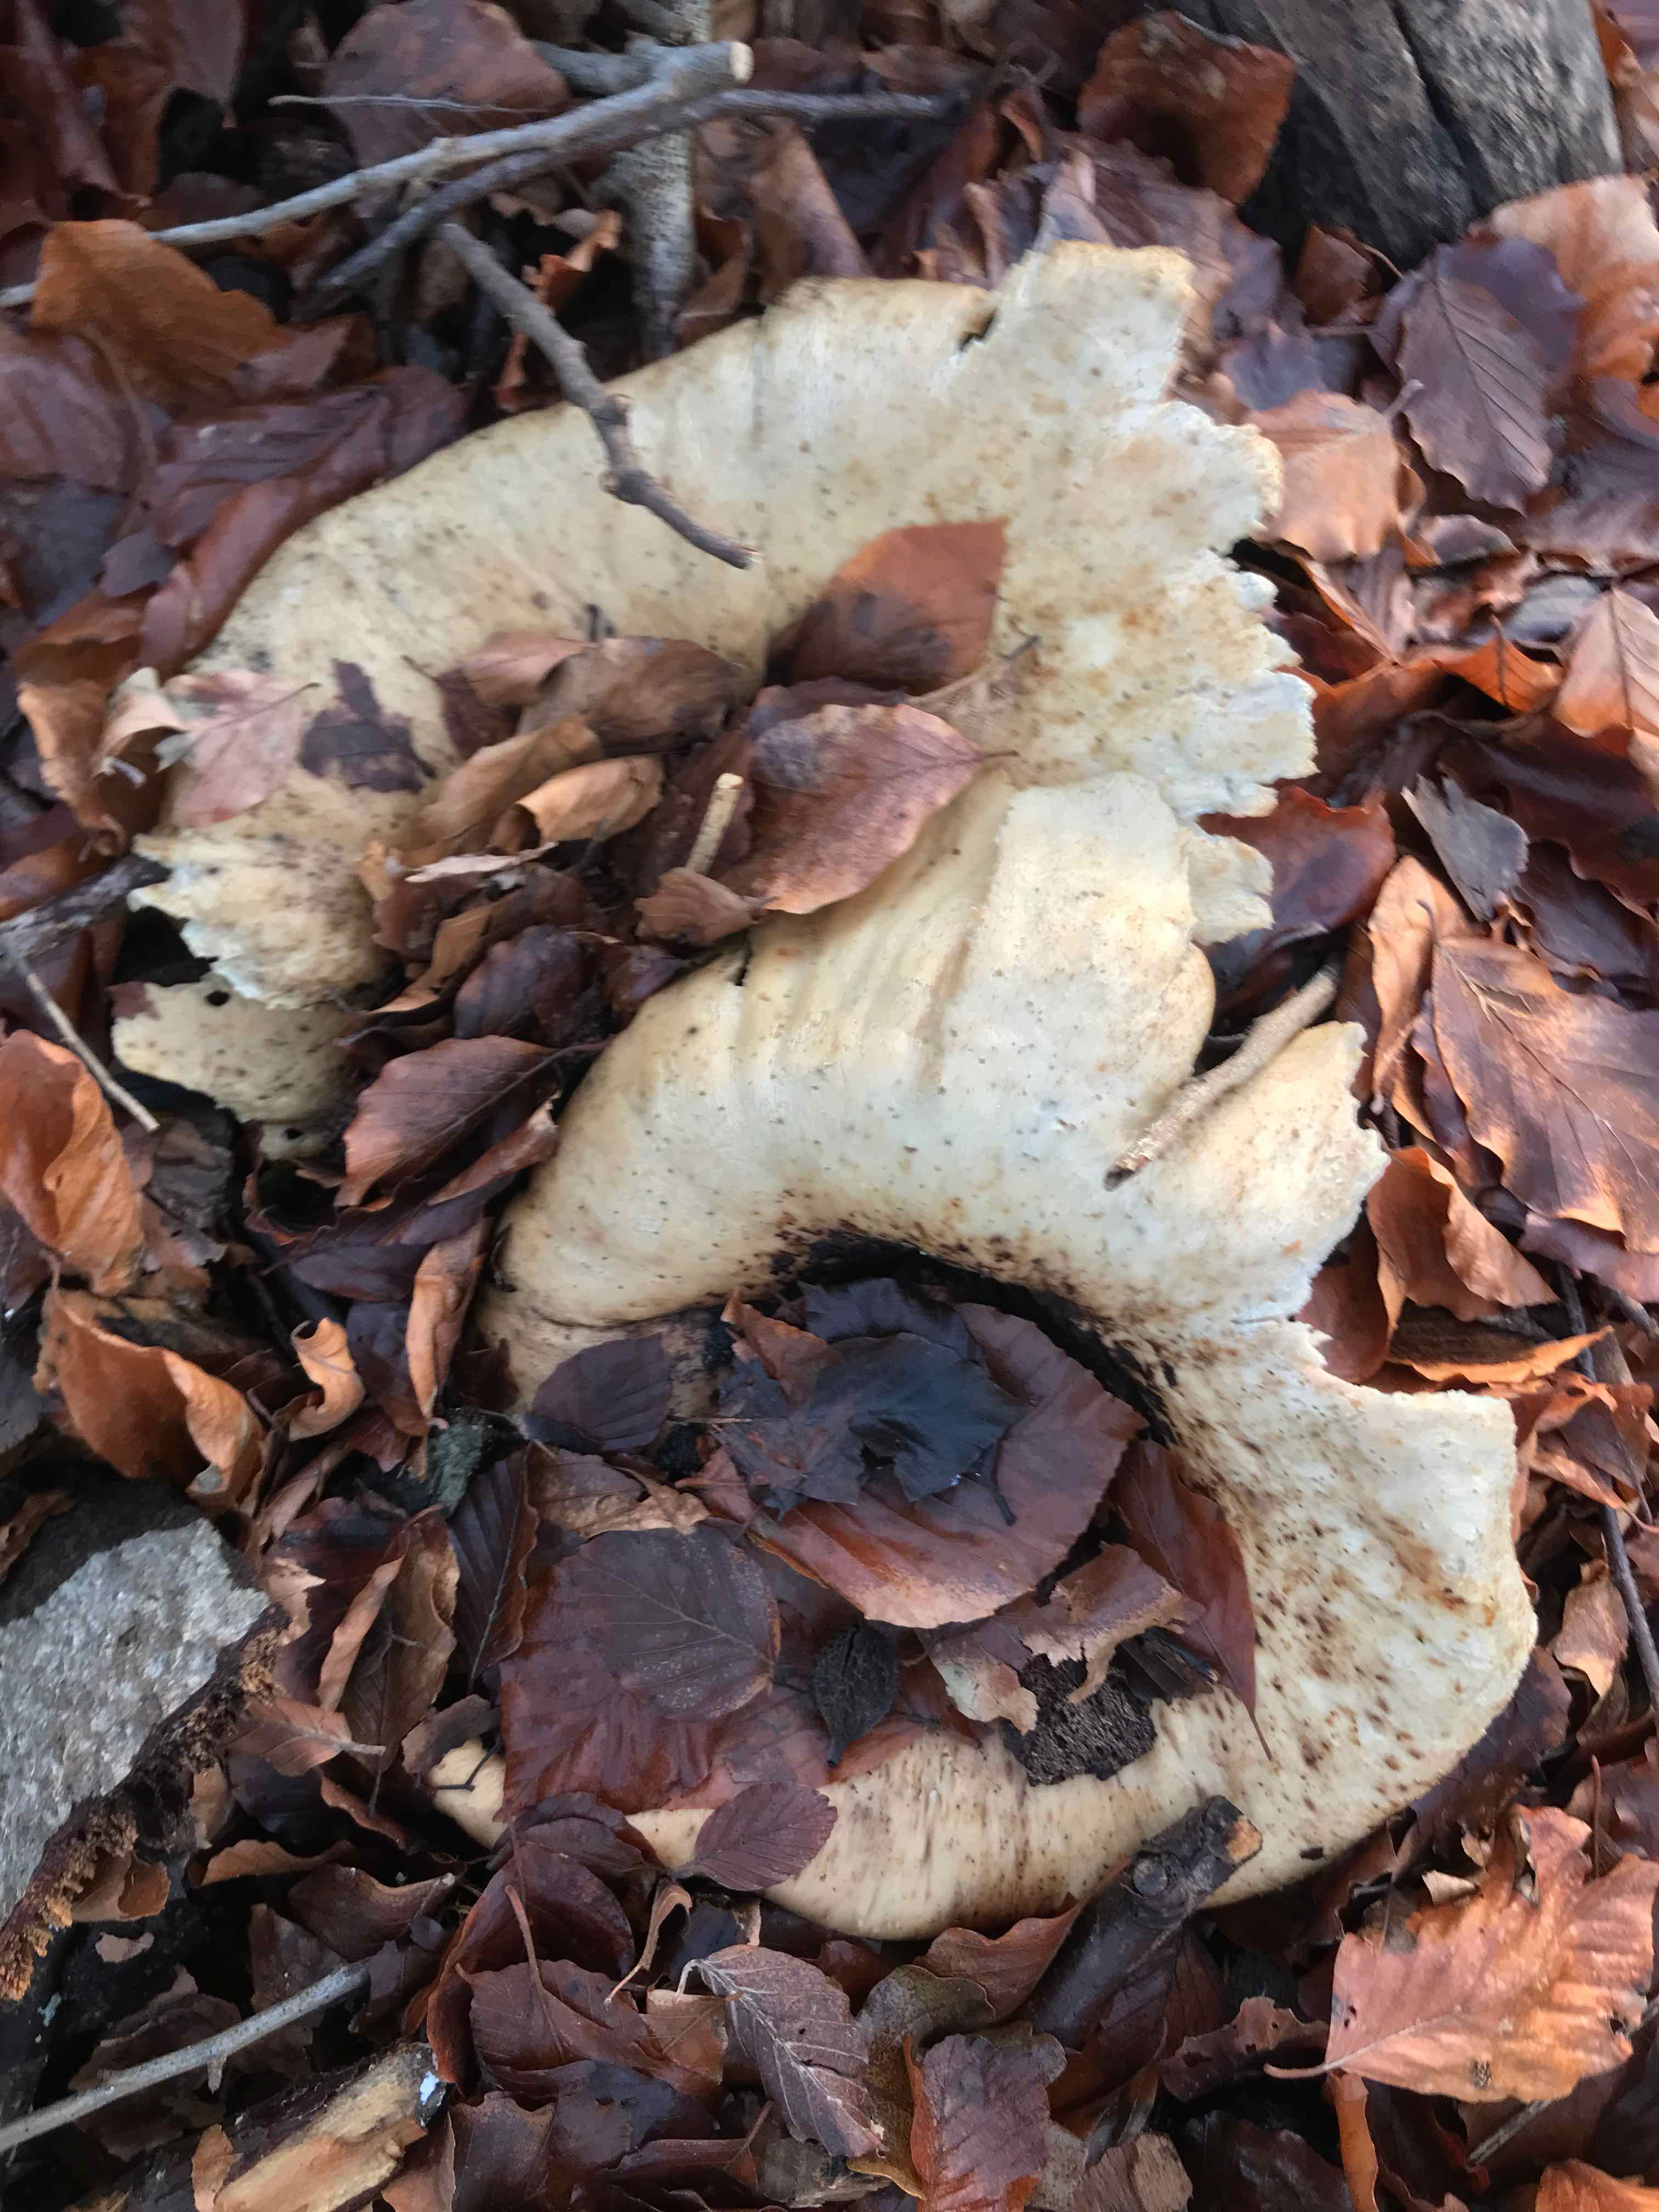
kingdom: Fungi
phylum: Basidiomycota
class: Agaricomycetes
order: Polyporales
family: Meripilaceae
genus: Meripilus
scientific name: Meripilus giganteus
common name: kæmpeporesvamp
